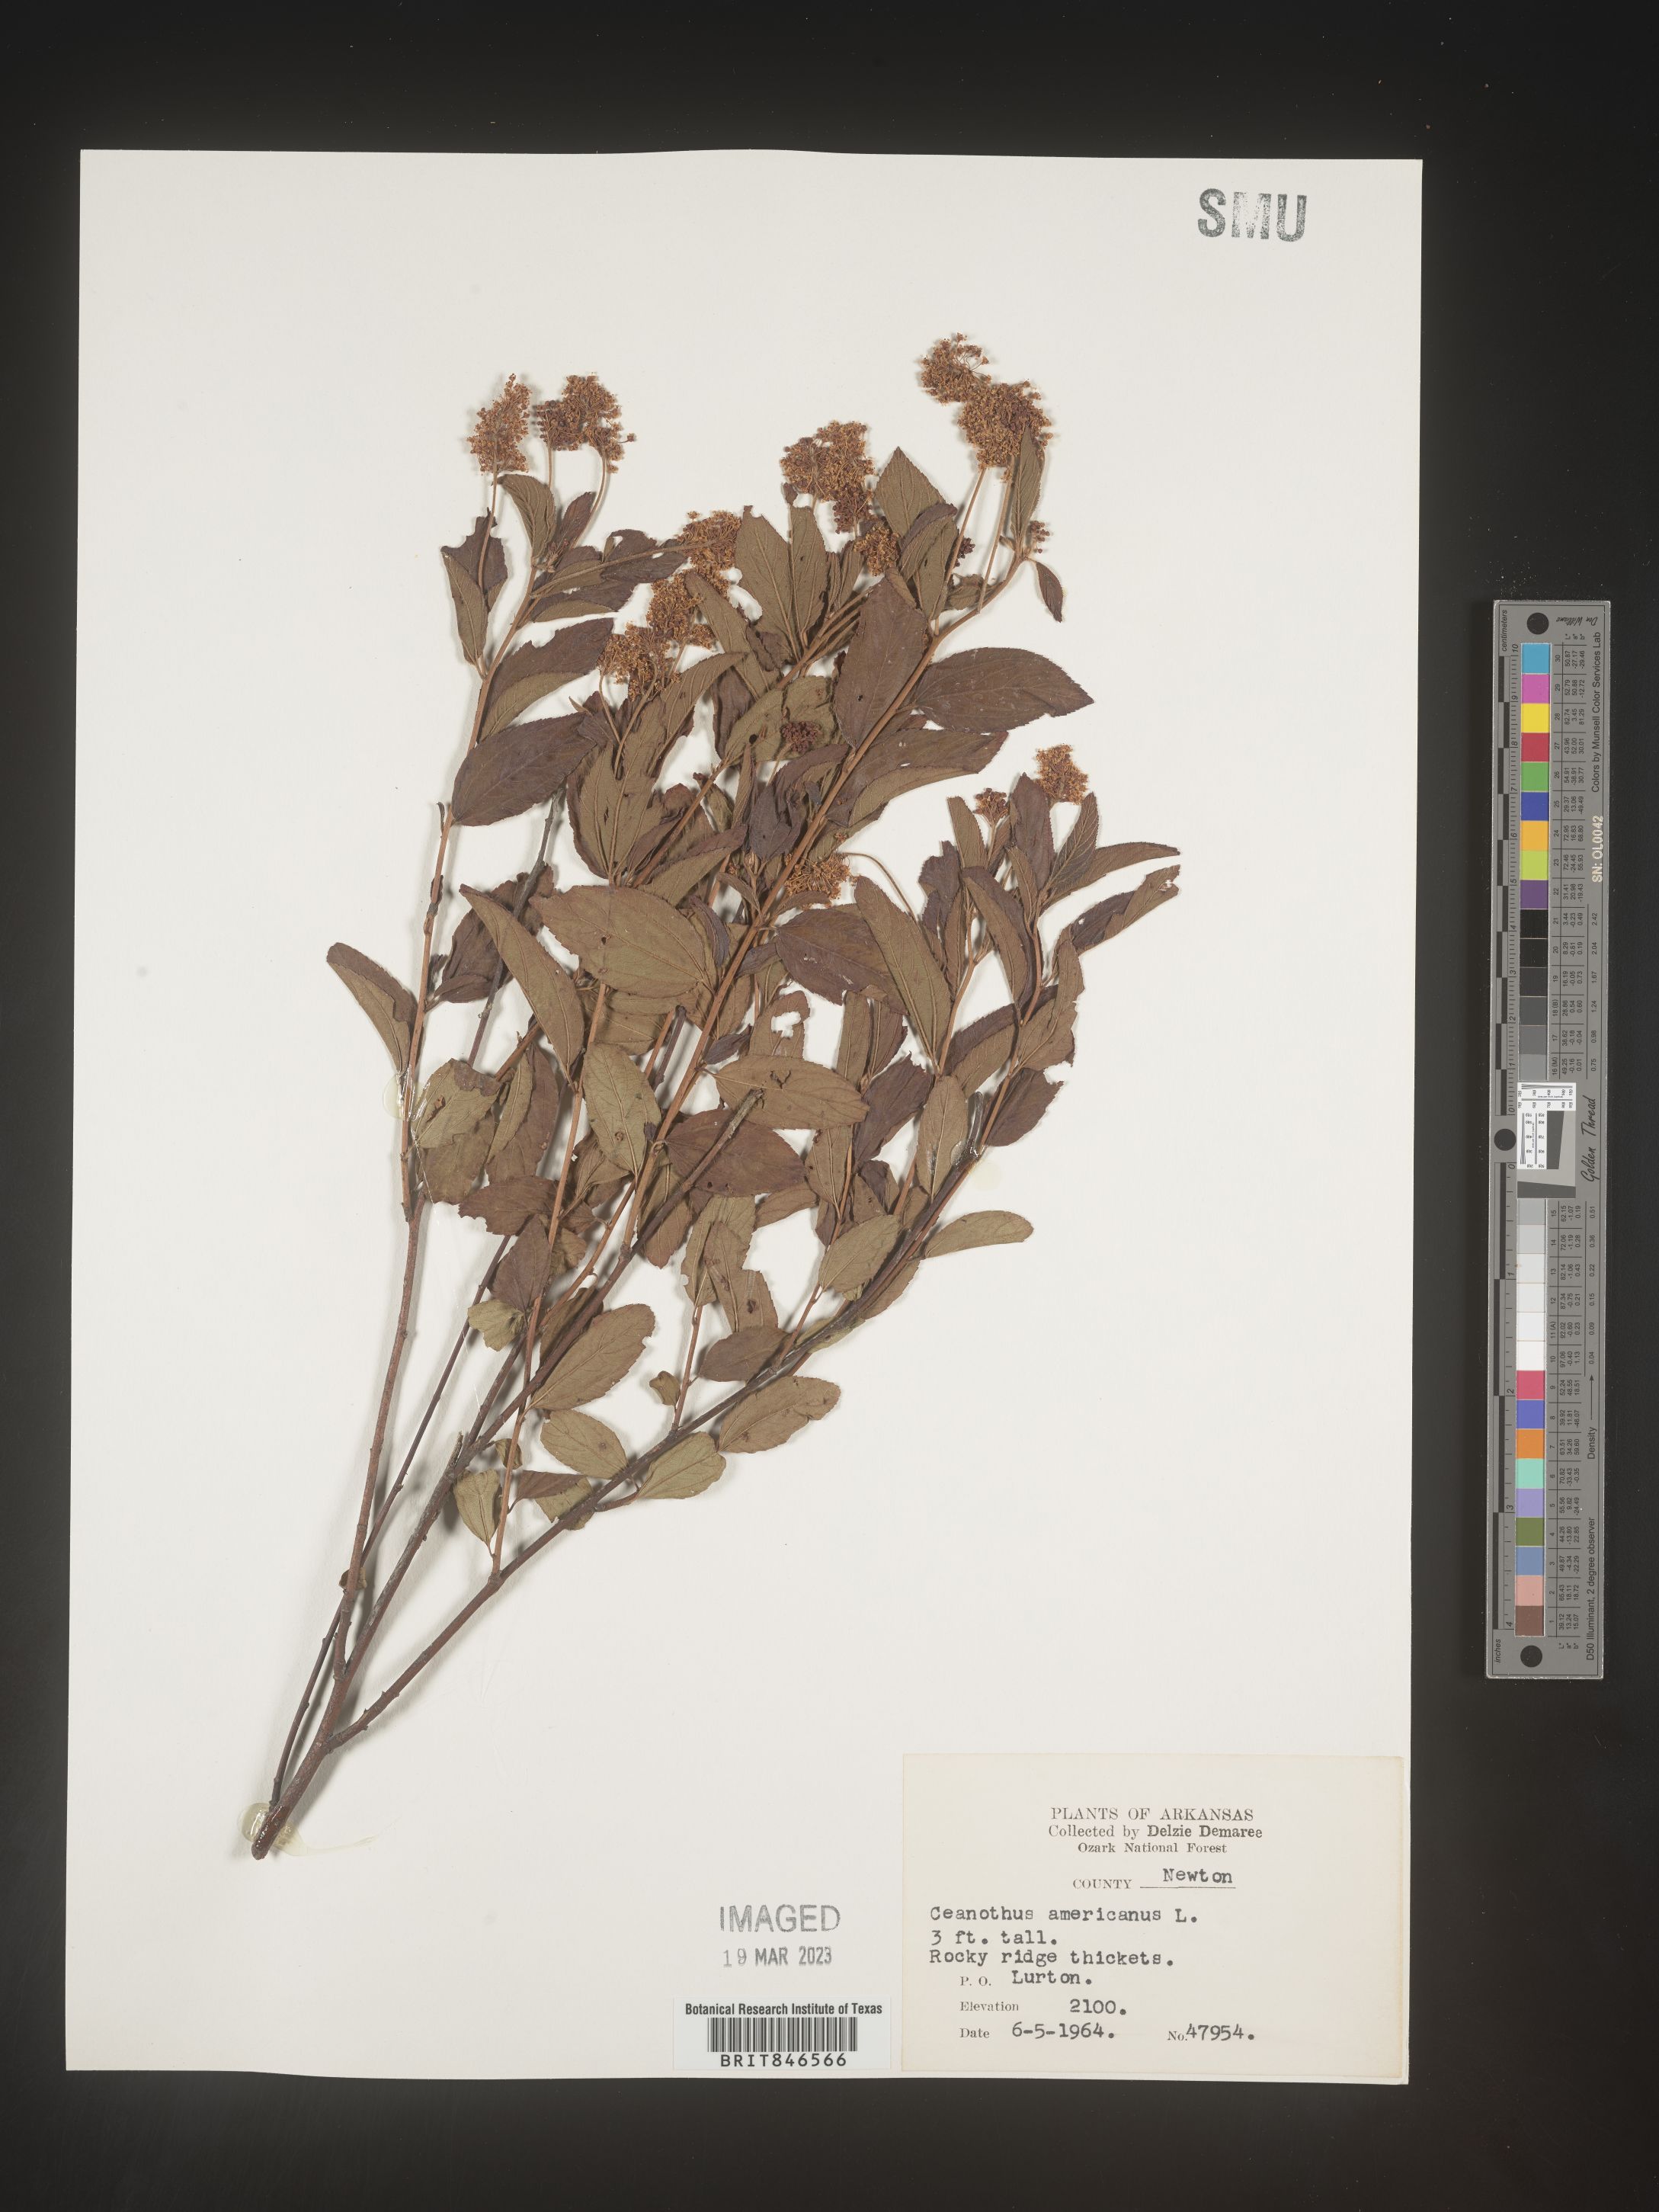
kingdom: Plantae
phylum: Tracheophyta
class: Magnoliopsida
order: Rosales
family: Rhamnaceae
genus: Ceanothus
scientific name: Ceanothus americanus
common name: Redroot
